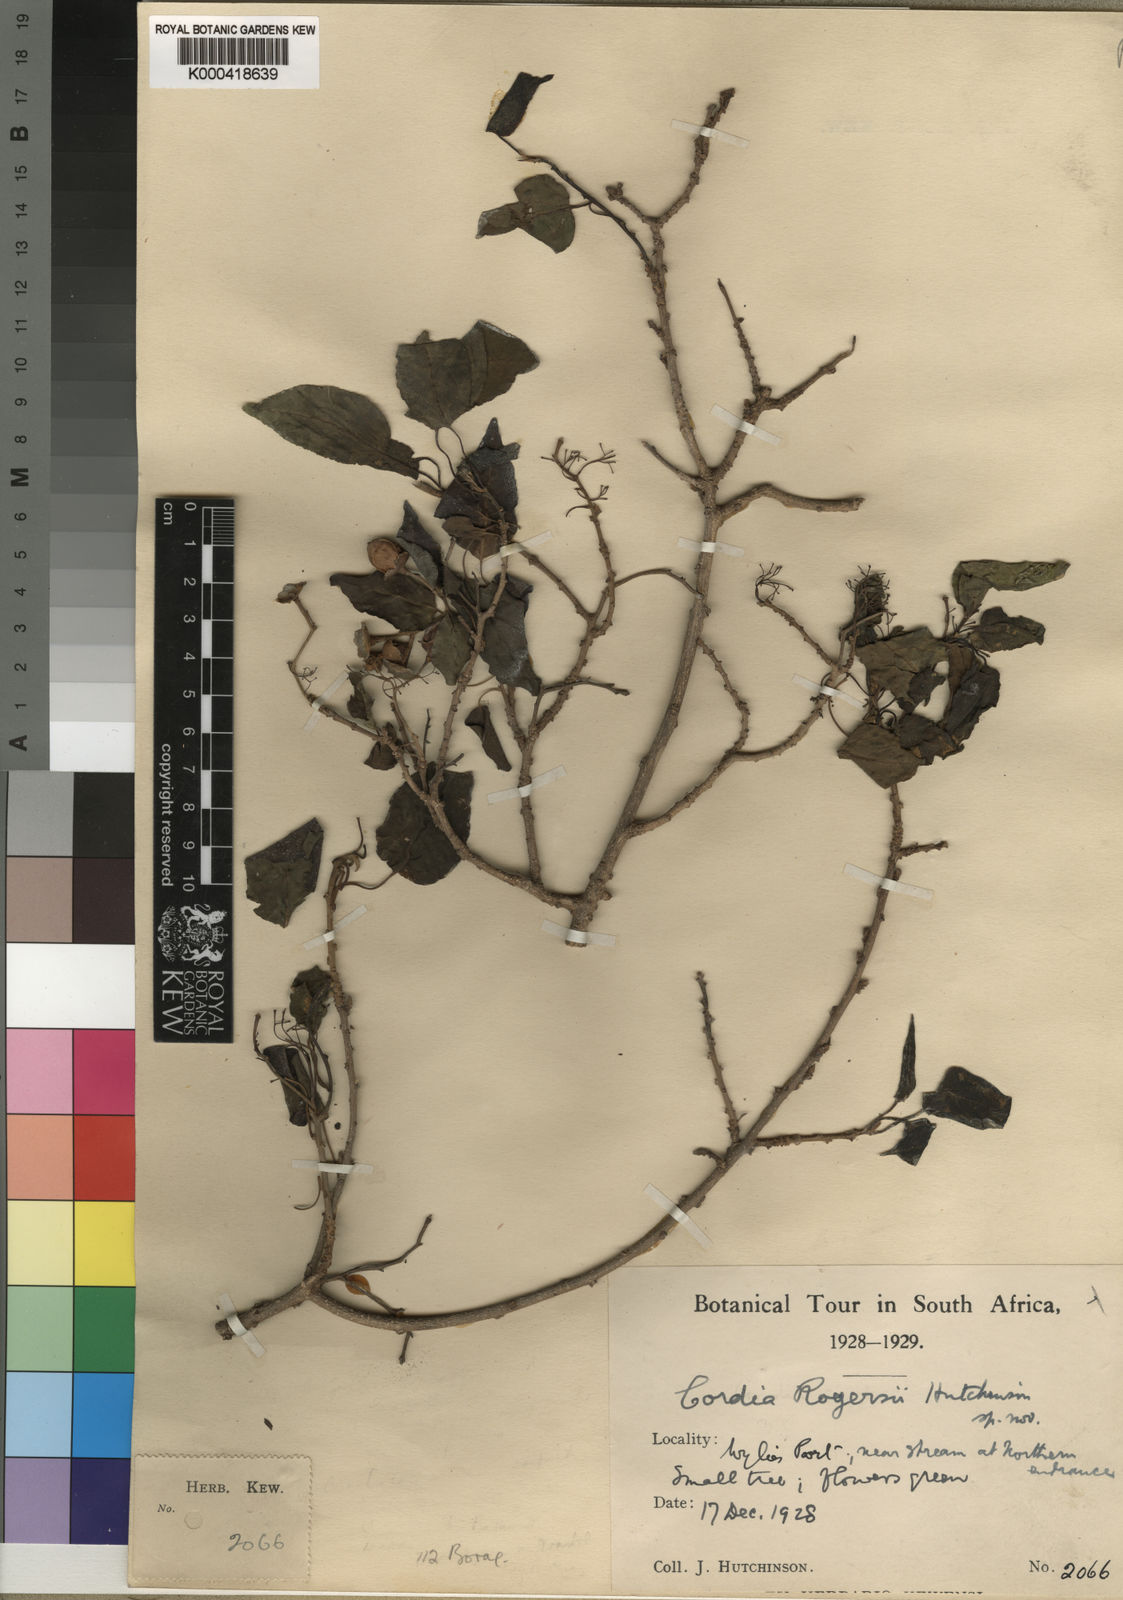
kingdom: Plantae
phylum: Tracheophyta
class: Magnoliopsida
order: Boraginales
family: Cordiaceae
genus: Cordia
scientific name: Cordia caffra
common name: Septee tree
